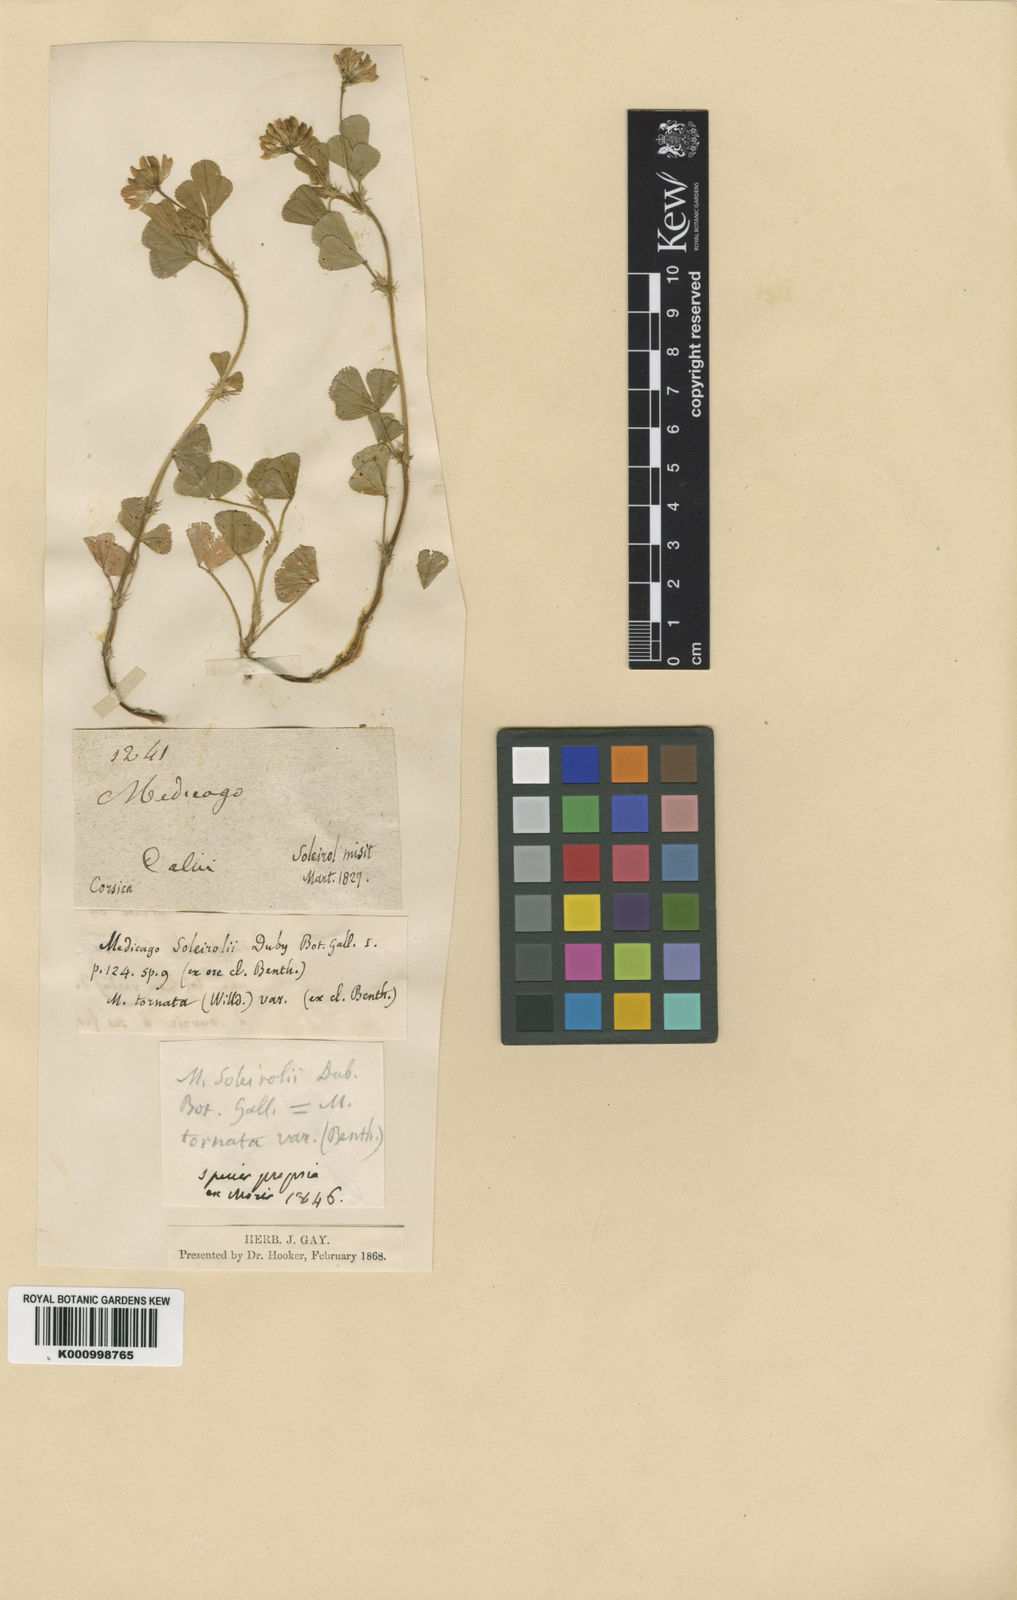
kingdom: Plantae
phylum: Tracheophyta
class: Magnoliopsida
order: Fabales
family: Fabaceae
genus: Medicago
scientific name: Medicago soleirolii
